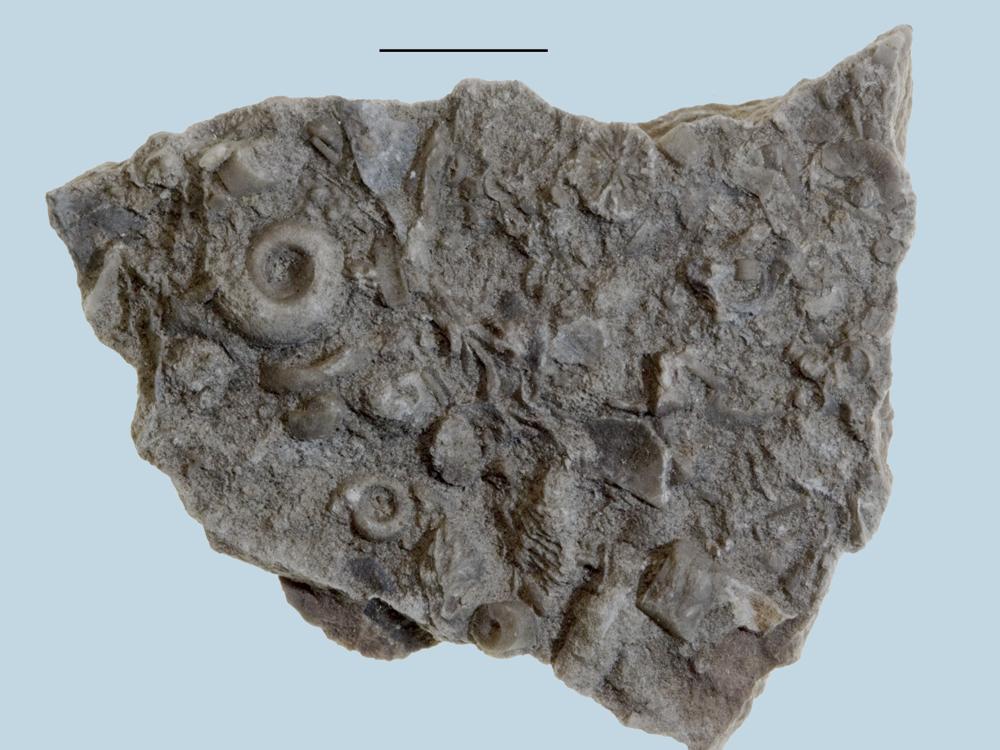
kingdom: Animalia
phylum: Mollusca
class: Gastropoda
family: Bucaniidae
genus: Bucania
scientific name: Bucania Bellerophon czekanowskii
